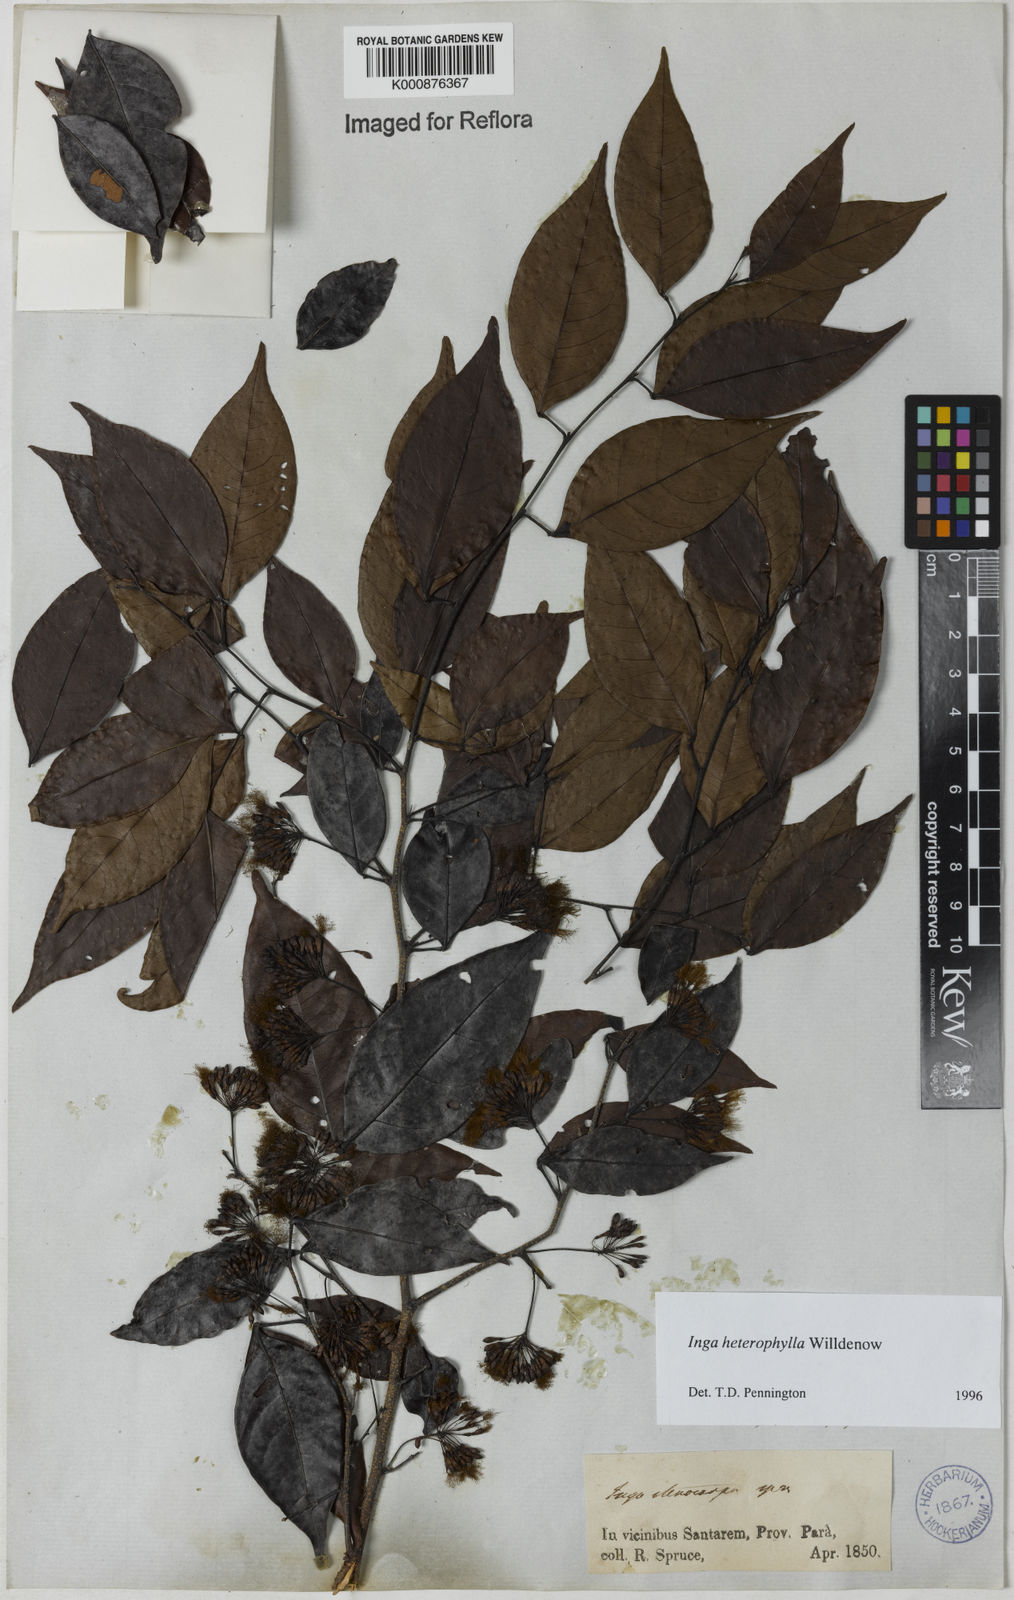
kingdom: Plantae
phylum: Tracheophyta
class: Magnoliopsida
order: Fabales
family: Fabaceae
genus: Inga
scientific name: Inga heterophylla
